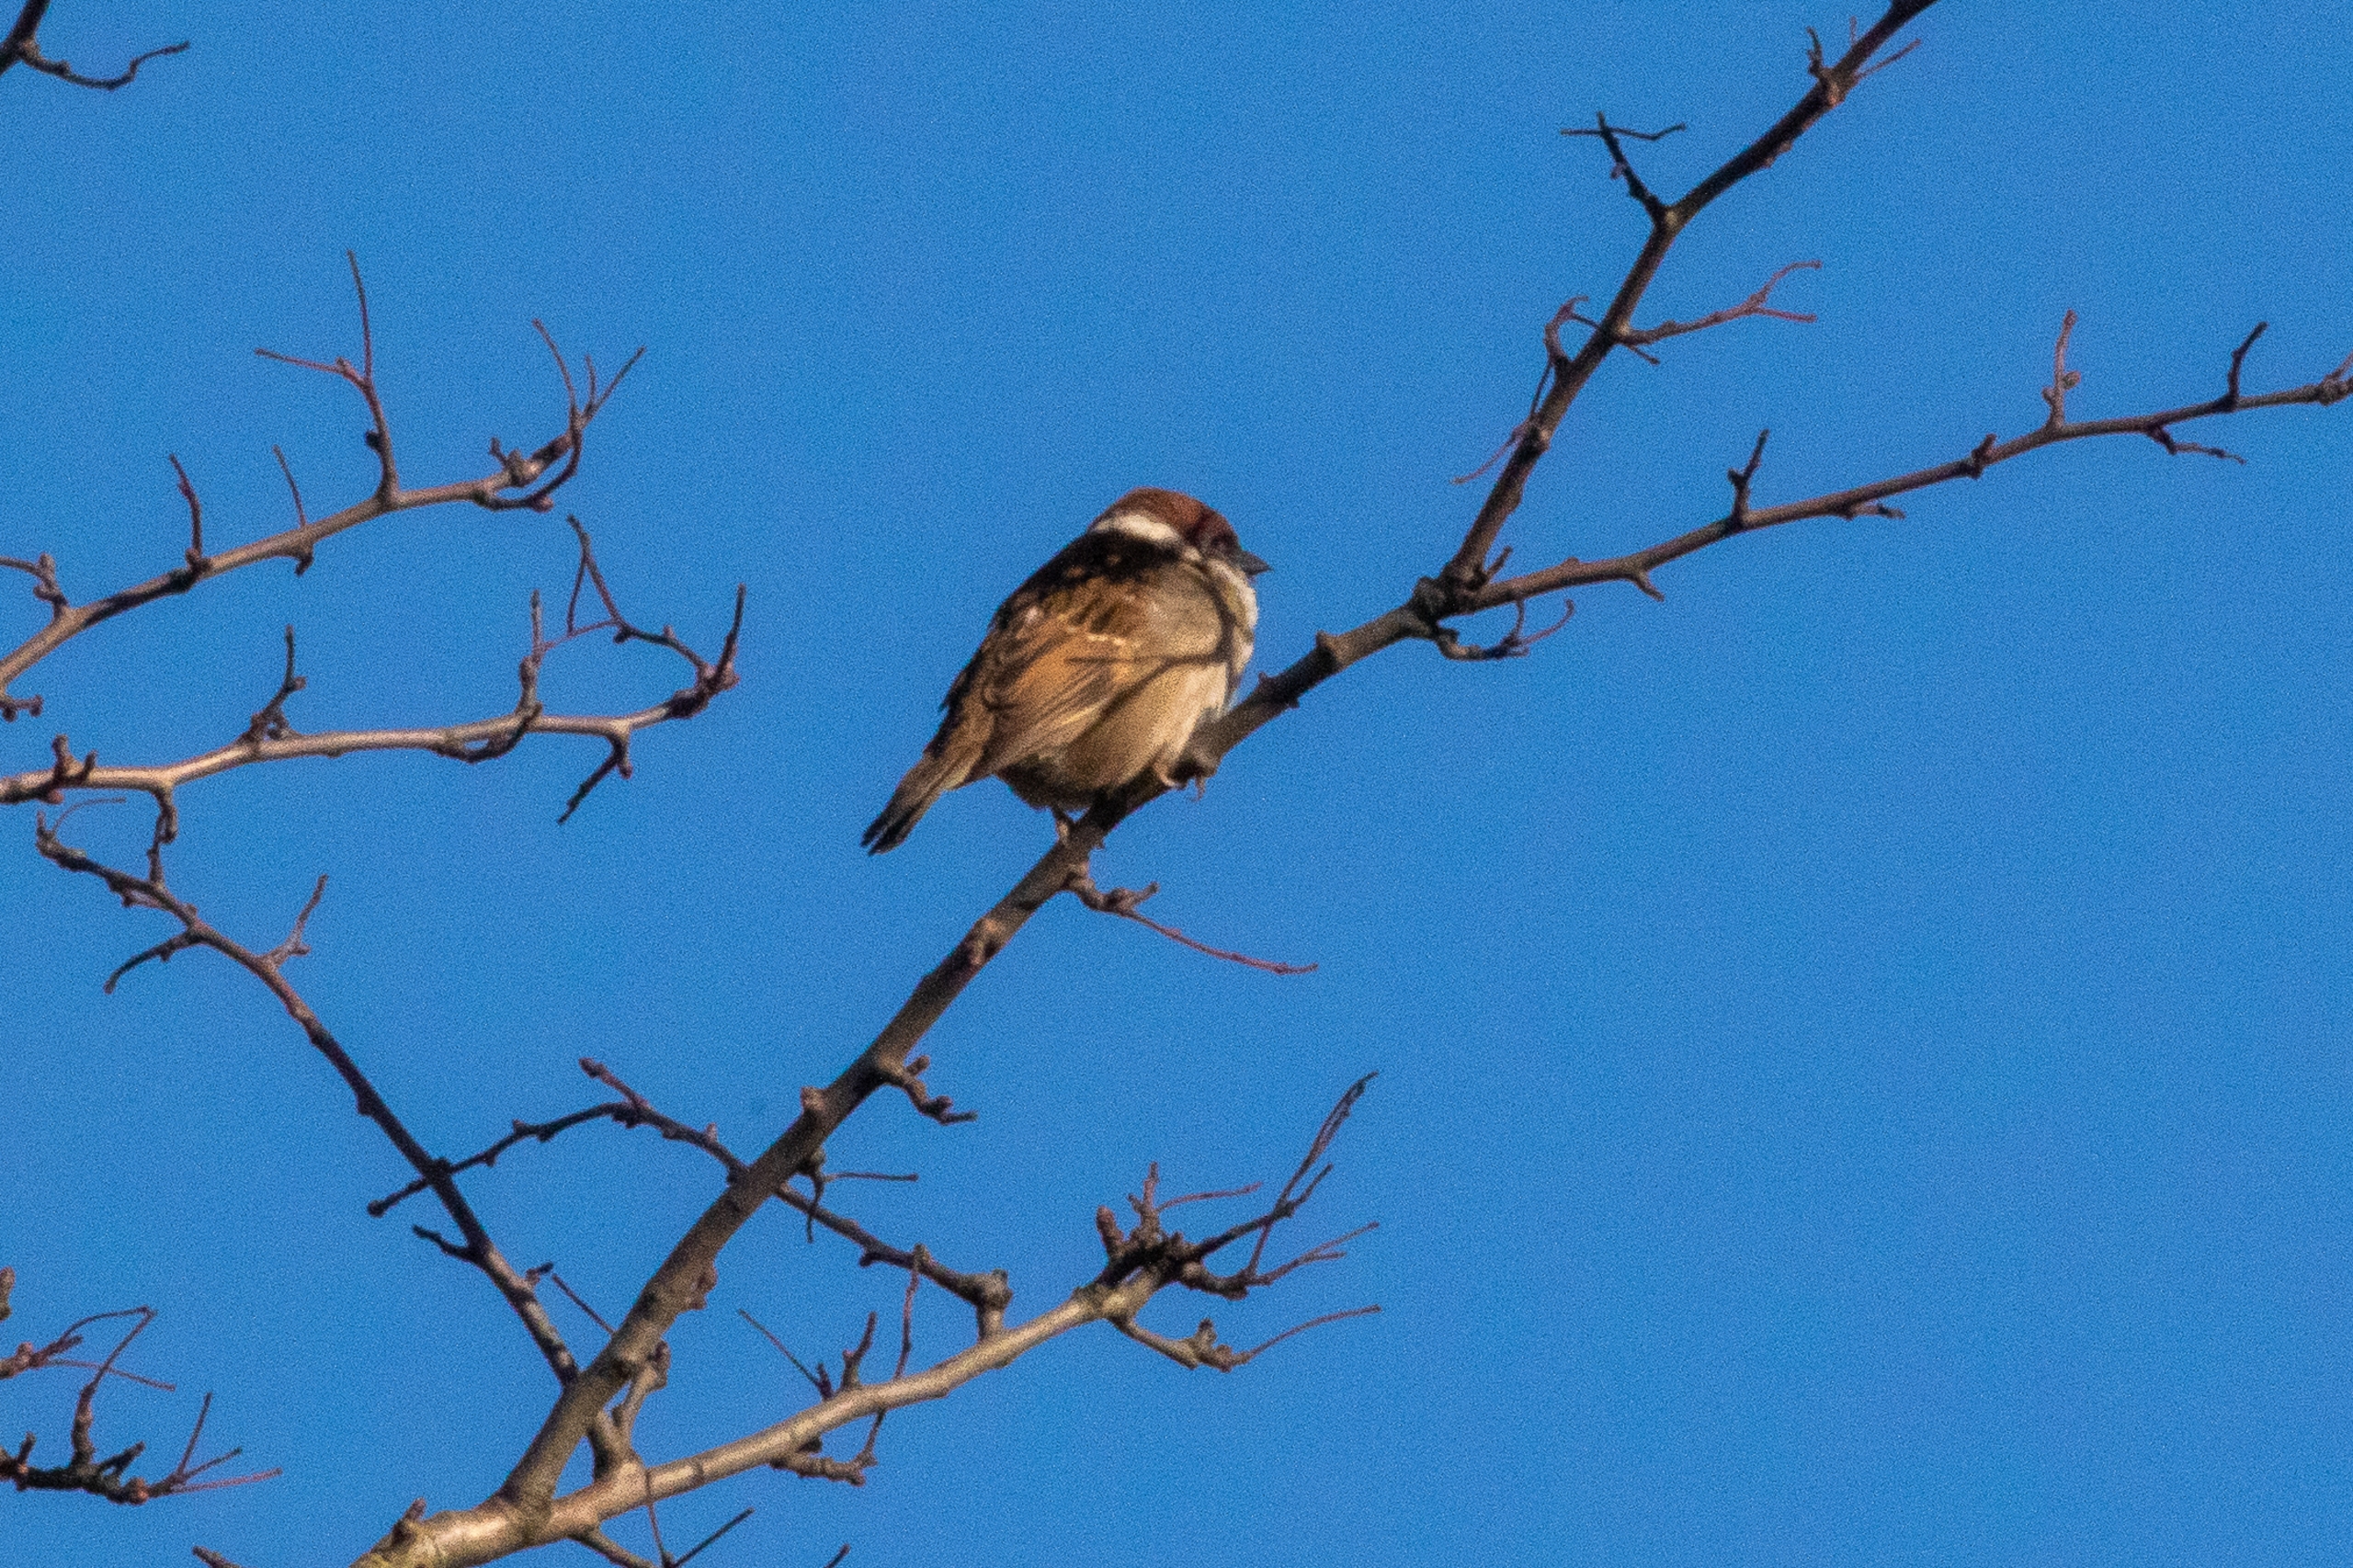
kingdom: Animalia
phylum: Chordata
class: Aves
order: Passeriformes
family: Passeridae
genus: Passer
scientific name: Passer montanus
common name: Skovspurv
